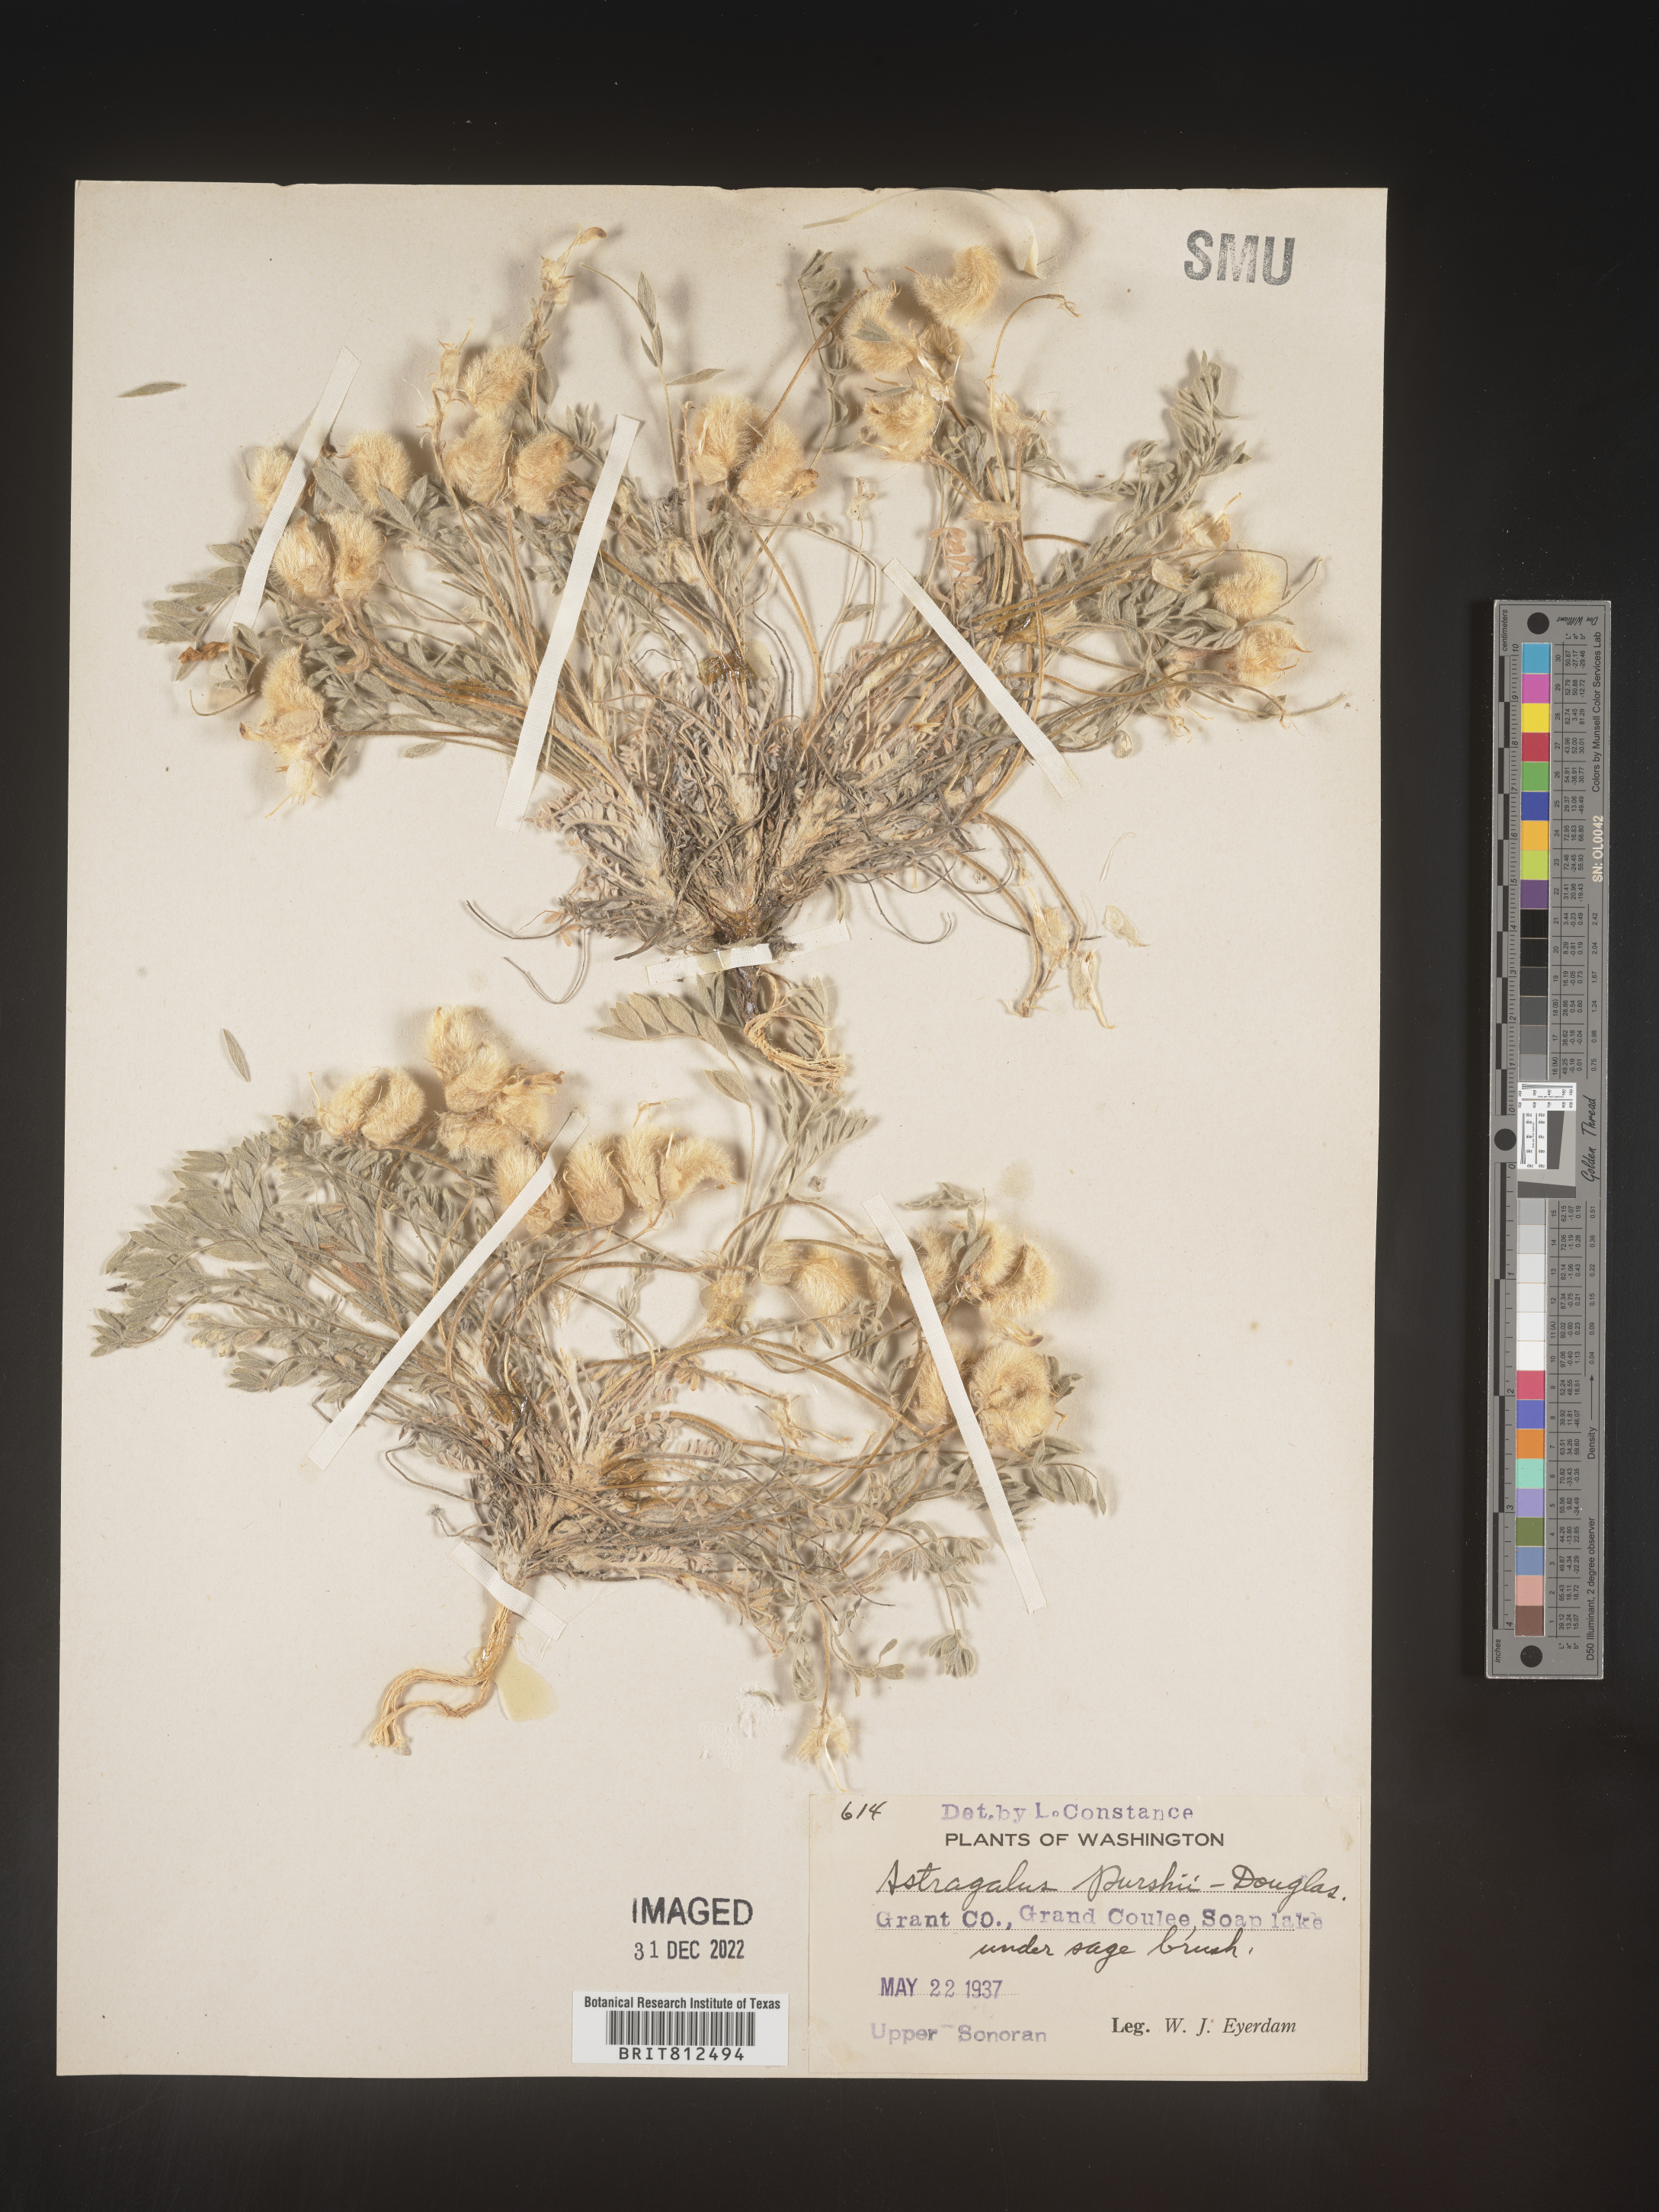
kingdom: Plantae
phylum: Tracheophyta
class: Magnoliopsida
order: Fabales
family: Fabaceae
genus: Astragalus
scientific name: Astragalus leucolobus
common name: Big bear valley woollypod
